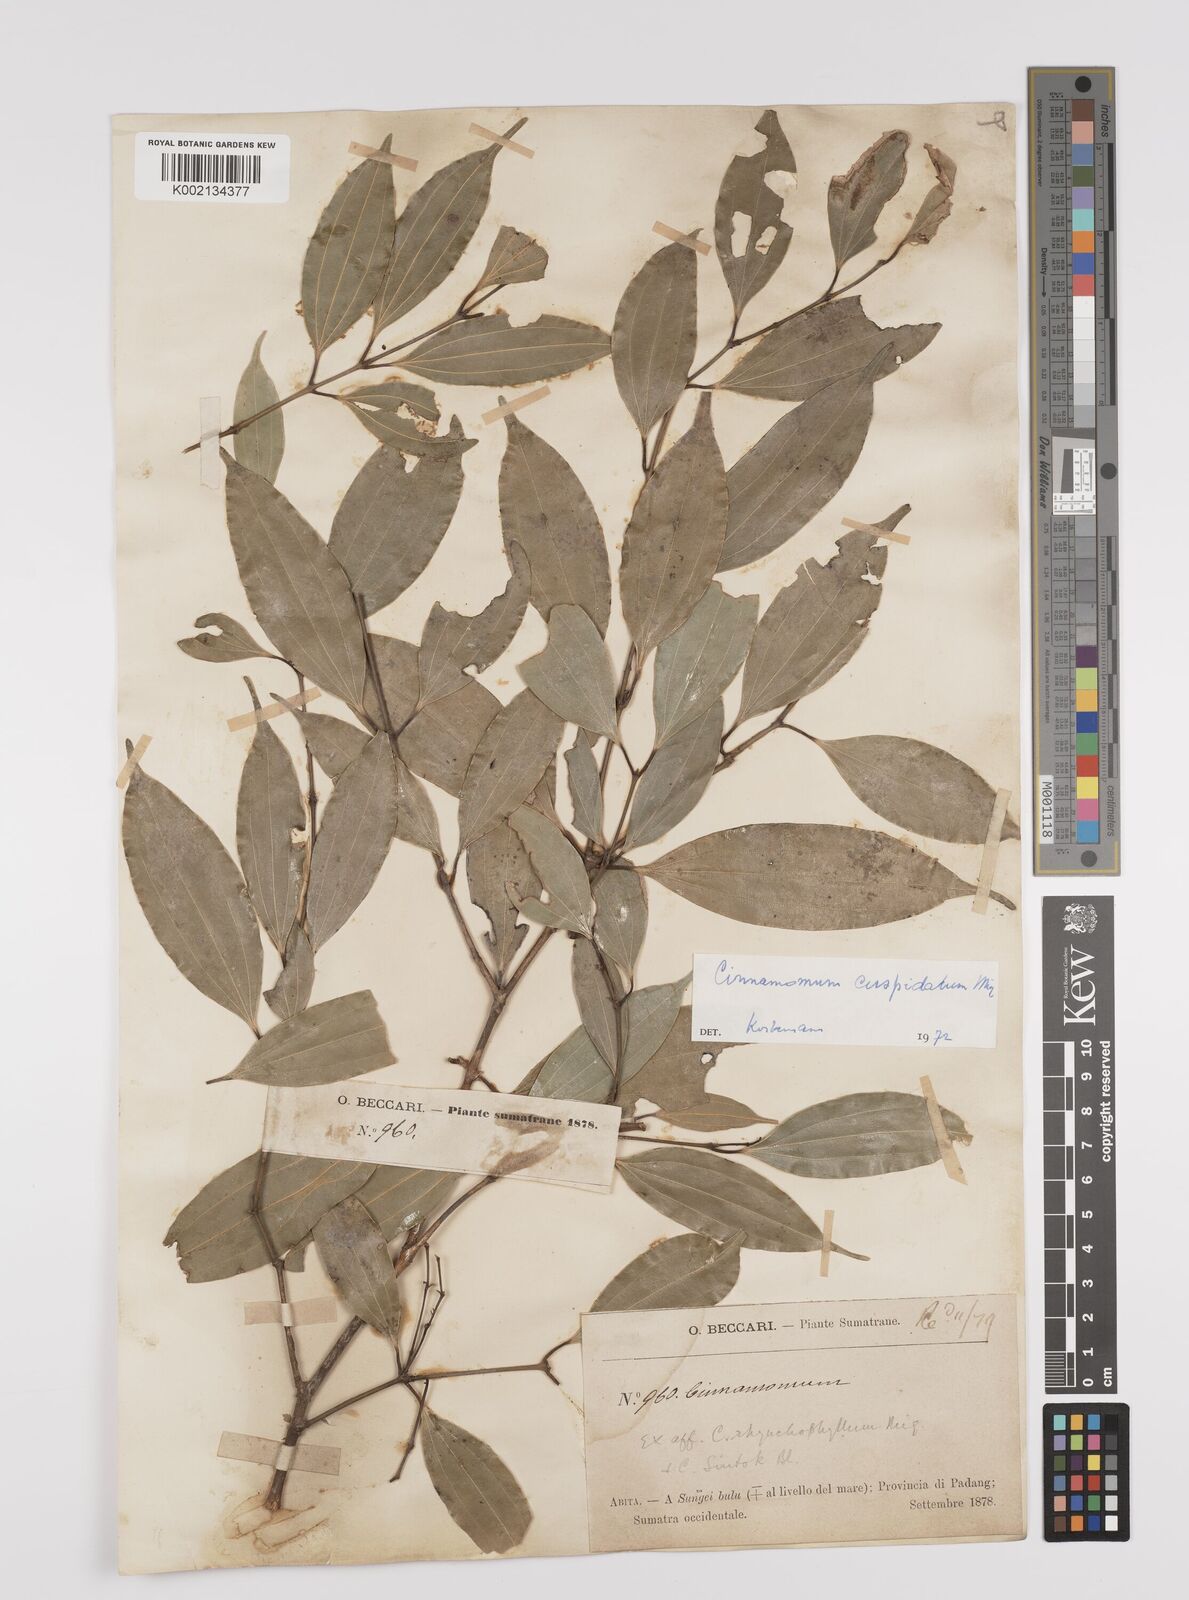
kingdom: Plantae
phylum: Tracheophyta
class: Magnoliopsida
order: Laurales
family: Lauraceae
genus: Cinnamomum
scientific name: Cinnamomum cuspidatum
